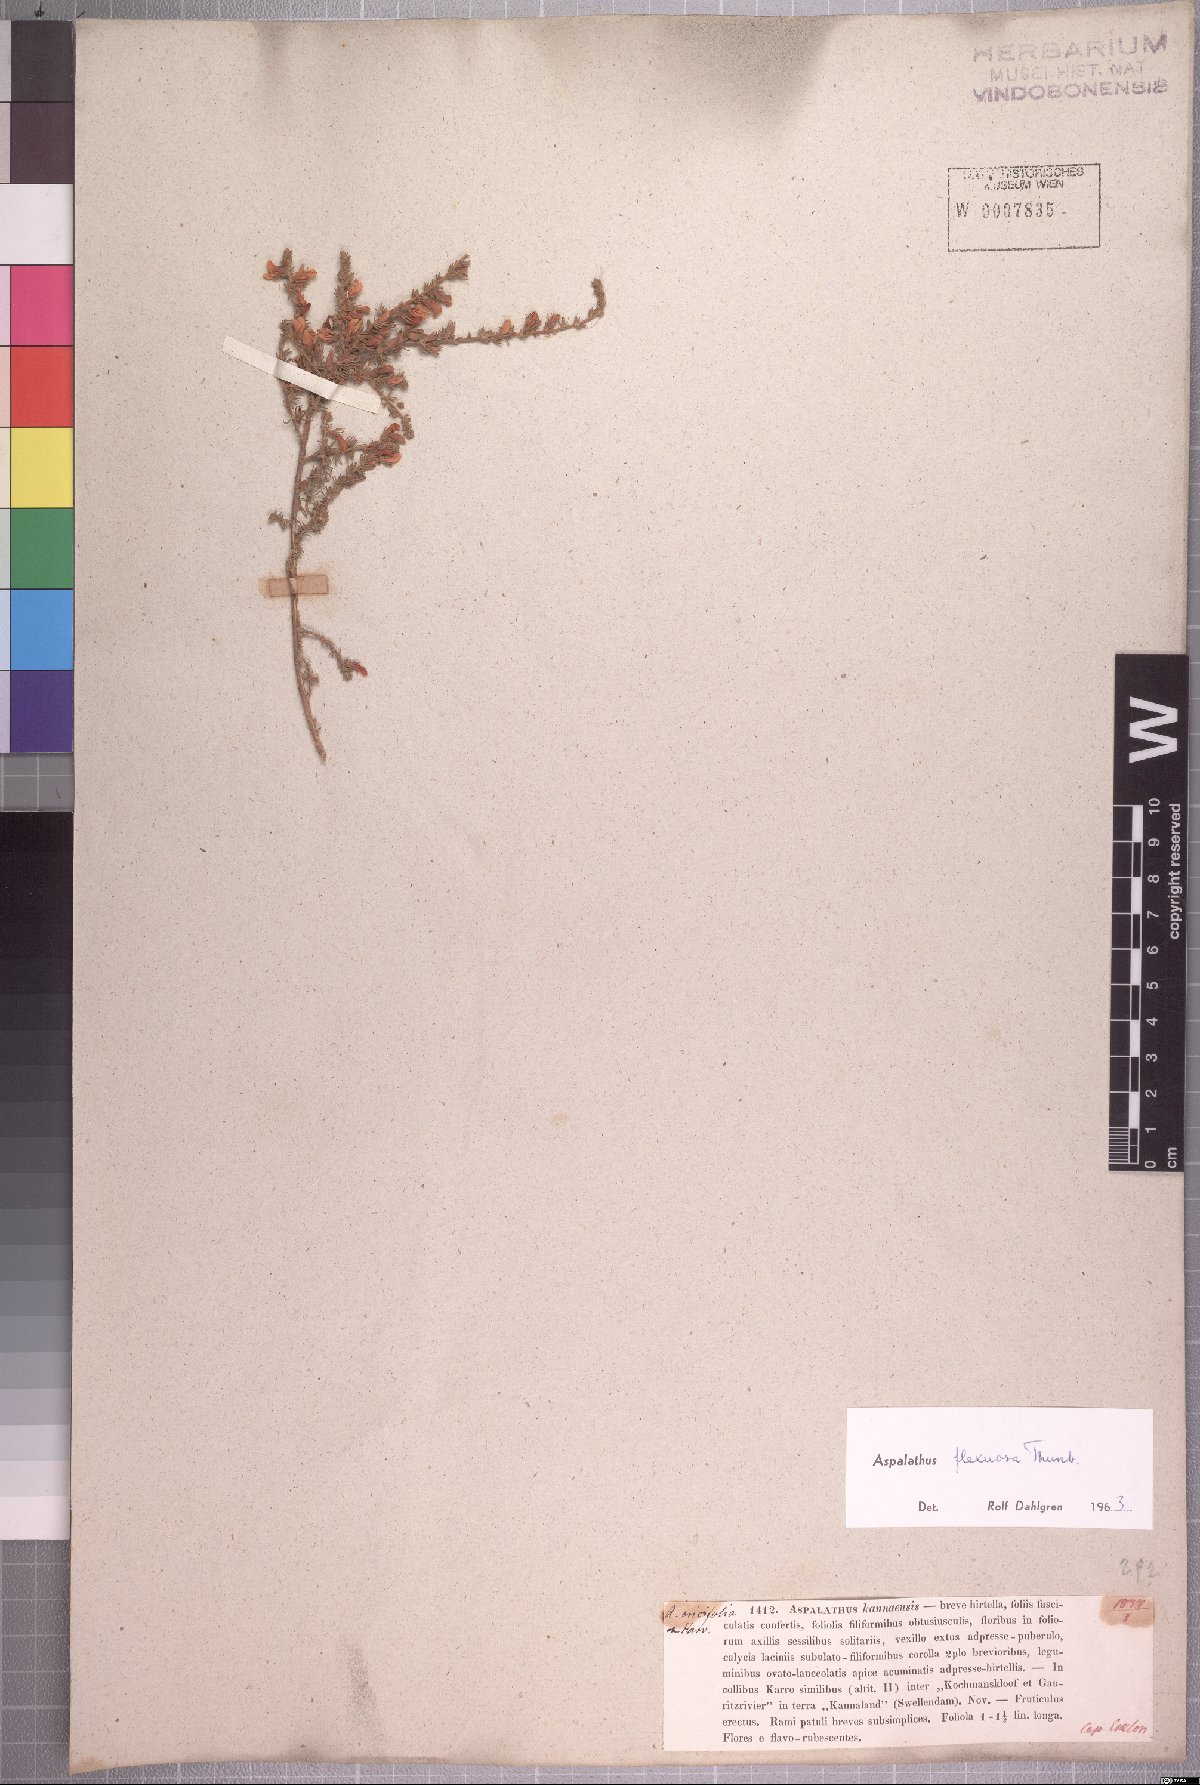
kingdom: Plantae
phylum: Tracheophyta
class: Magnoliopsida
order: Fabales
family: Fabaceae
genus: Aspalathus
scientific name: Aspalathus flexuosa
